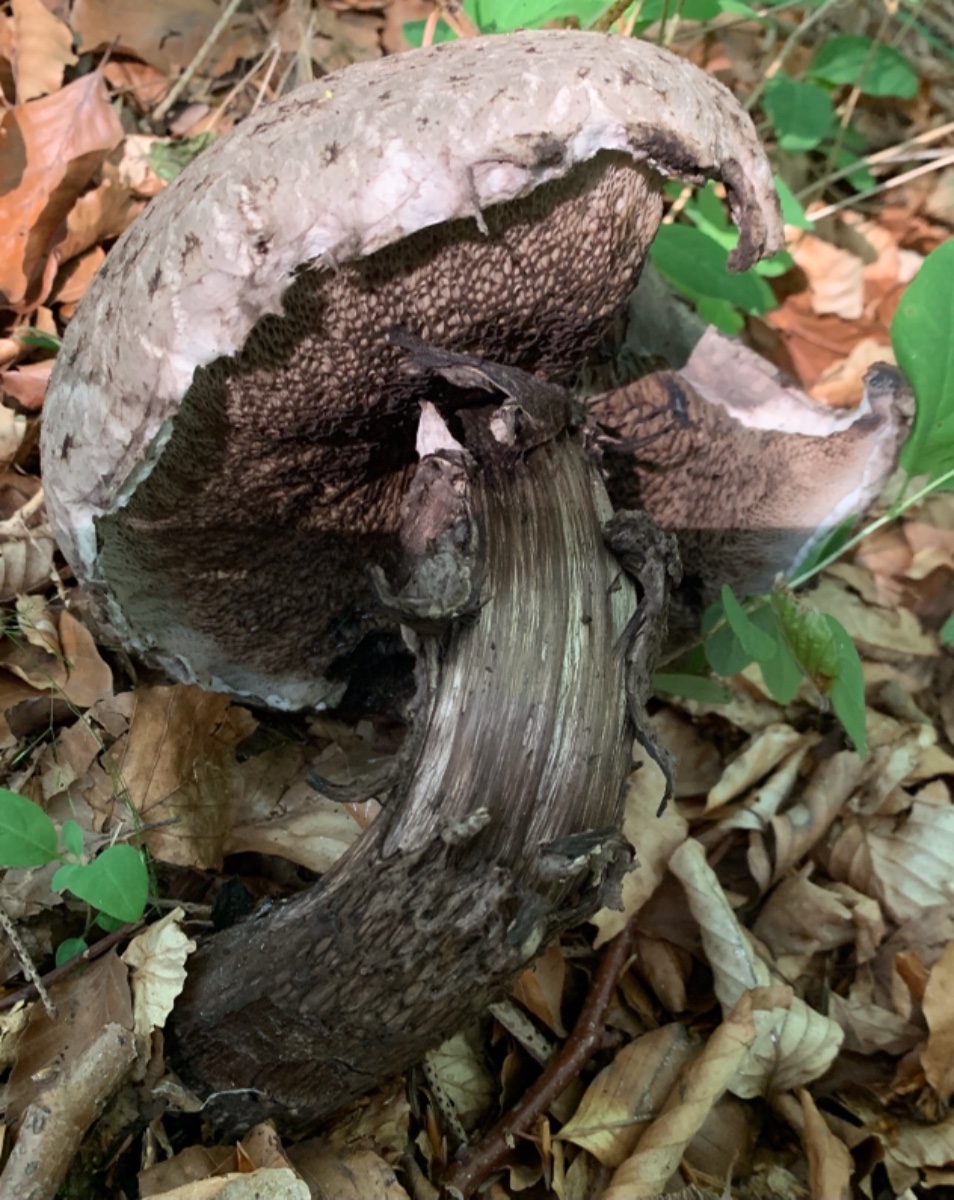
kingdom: Fungi
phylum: Basidiomycota
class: Agaricomycetes
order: Boletales
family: Boletaceae
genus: Strobilomyces
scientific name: Strobilomyces strobilaceus
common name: koglerørhat
